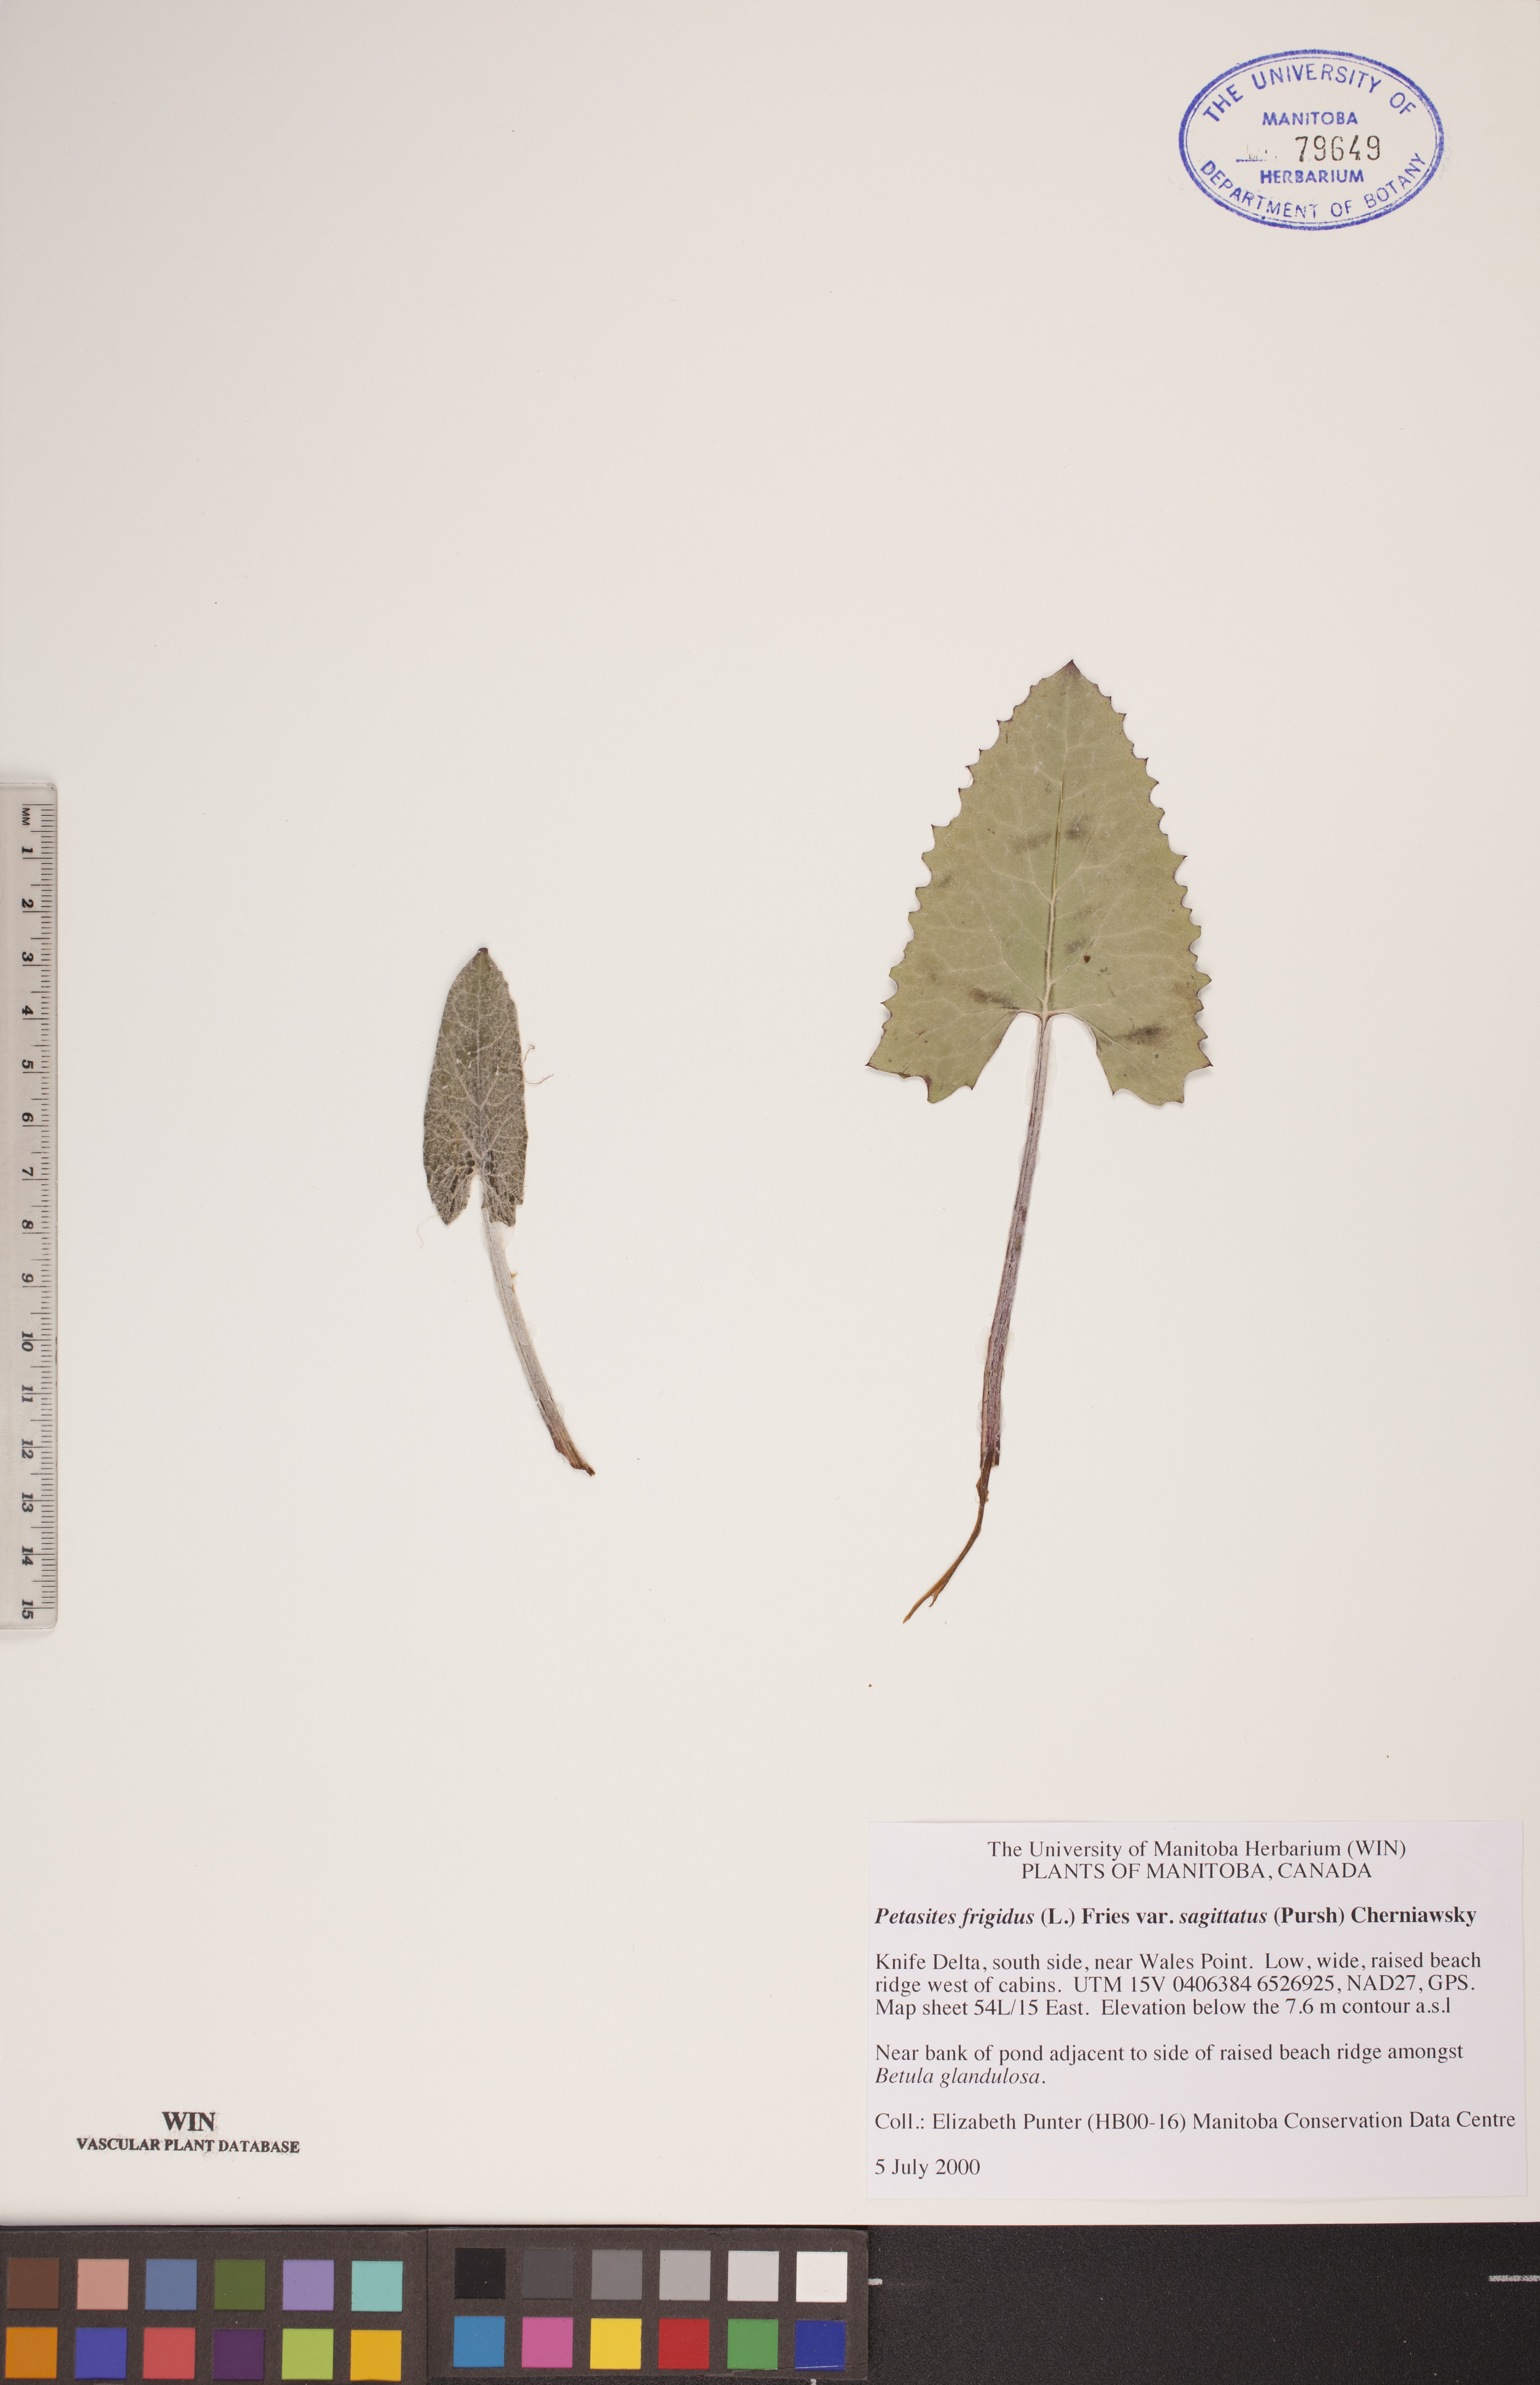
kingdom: Plantae
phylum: Tracheophyta
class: Magnoliopsida
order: Asterales
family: Asteraceae
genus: Petasites
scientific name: Petasites frigidus
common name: Arctic butterbur
